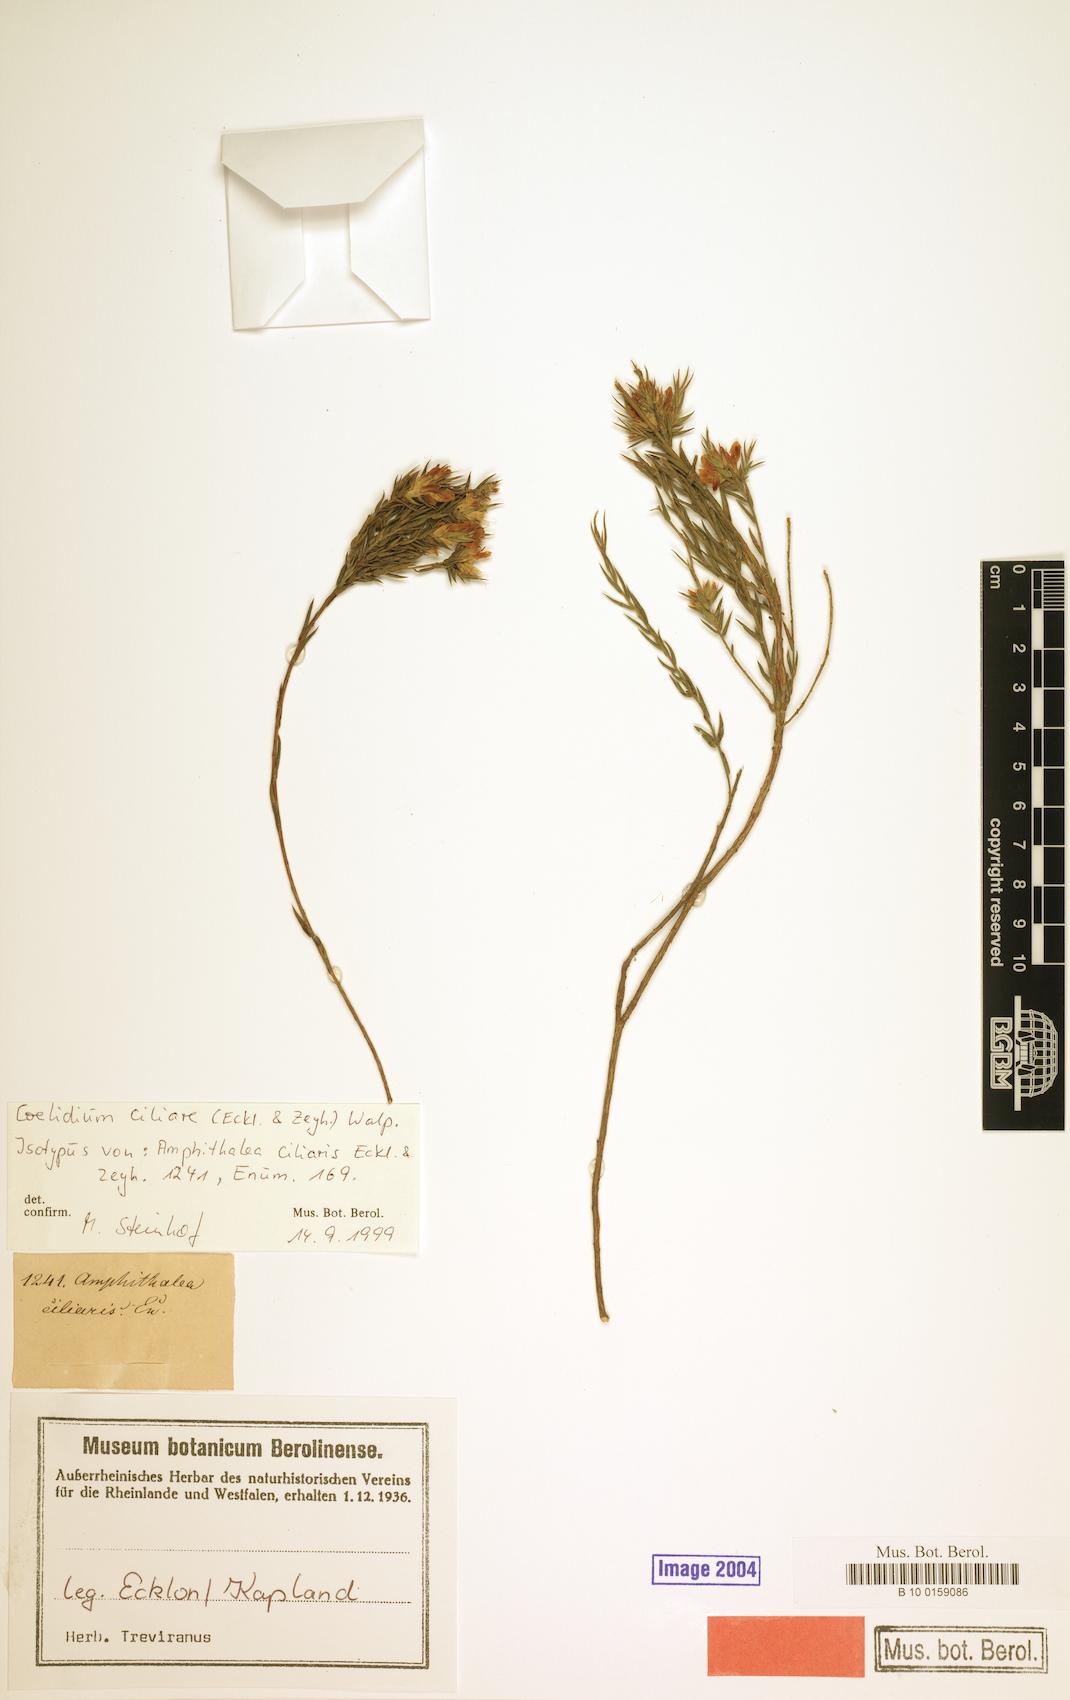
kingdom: Plantae
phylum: Tracheophyta
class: Magnoliopsida
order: Fabales
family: Fabaceae
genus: Amphithalea
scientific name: Amphithalea ciliaris
